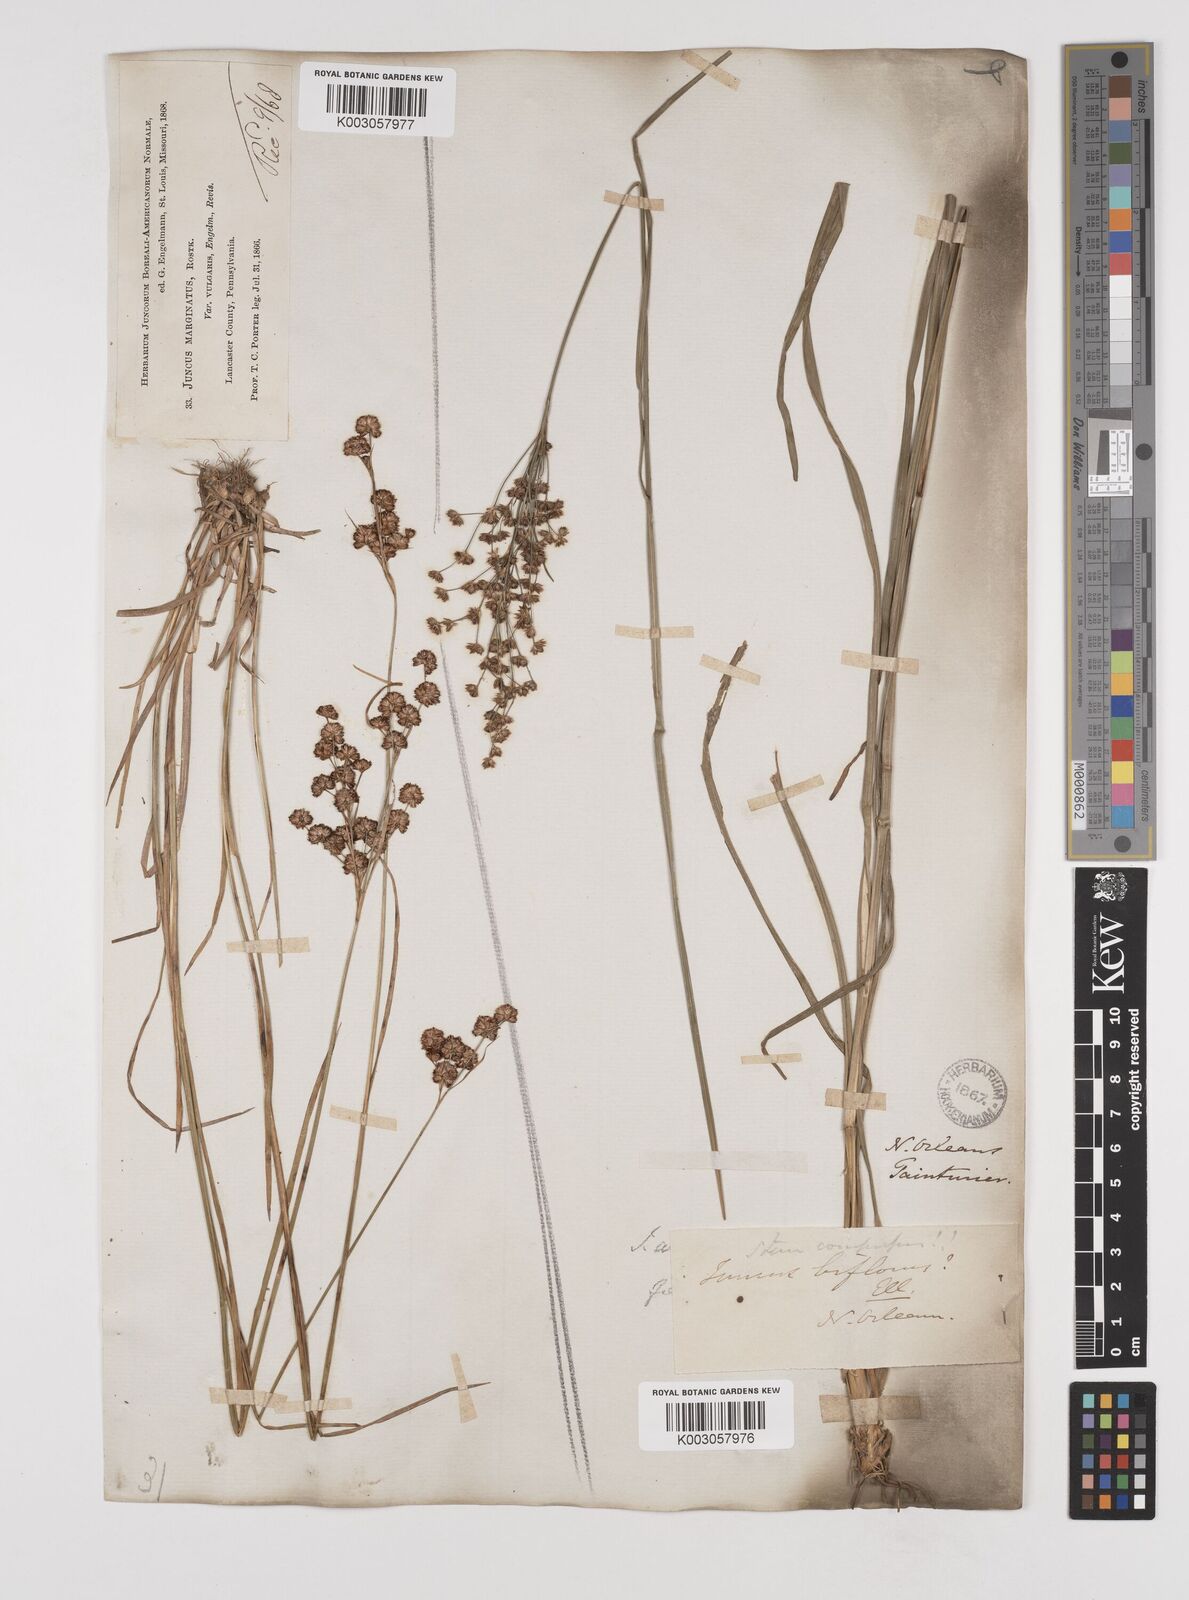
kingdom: Plantae
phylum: Tracheophyta
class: Liliopsida
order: Poales
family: Juncaceae
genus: Juncus
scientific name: Juncus marginatus
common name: Grass-leaf rush
